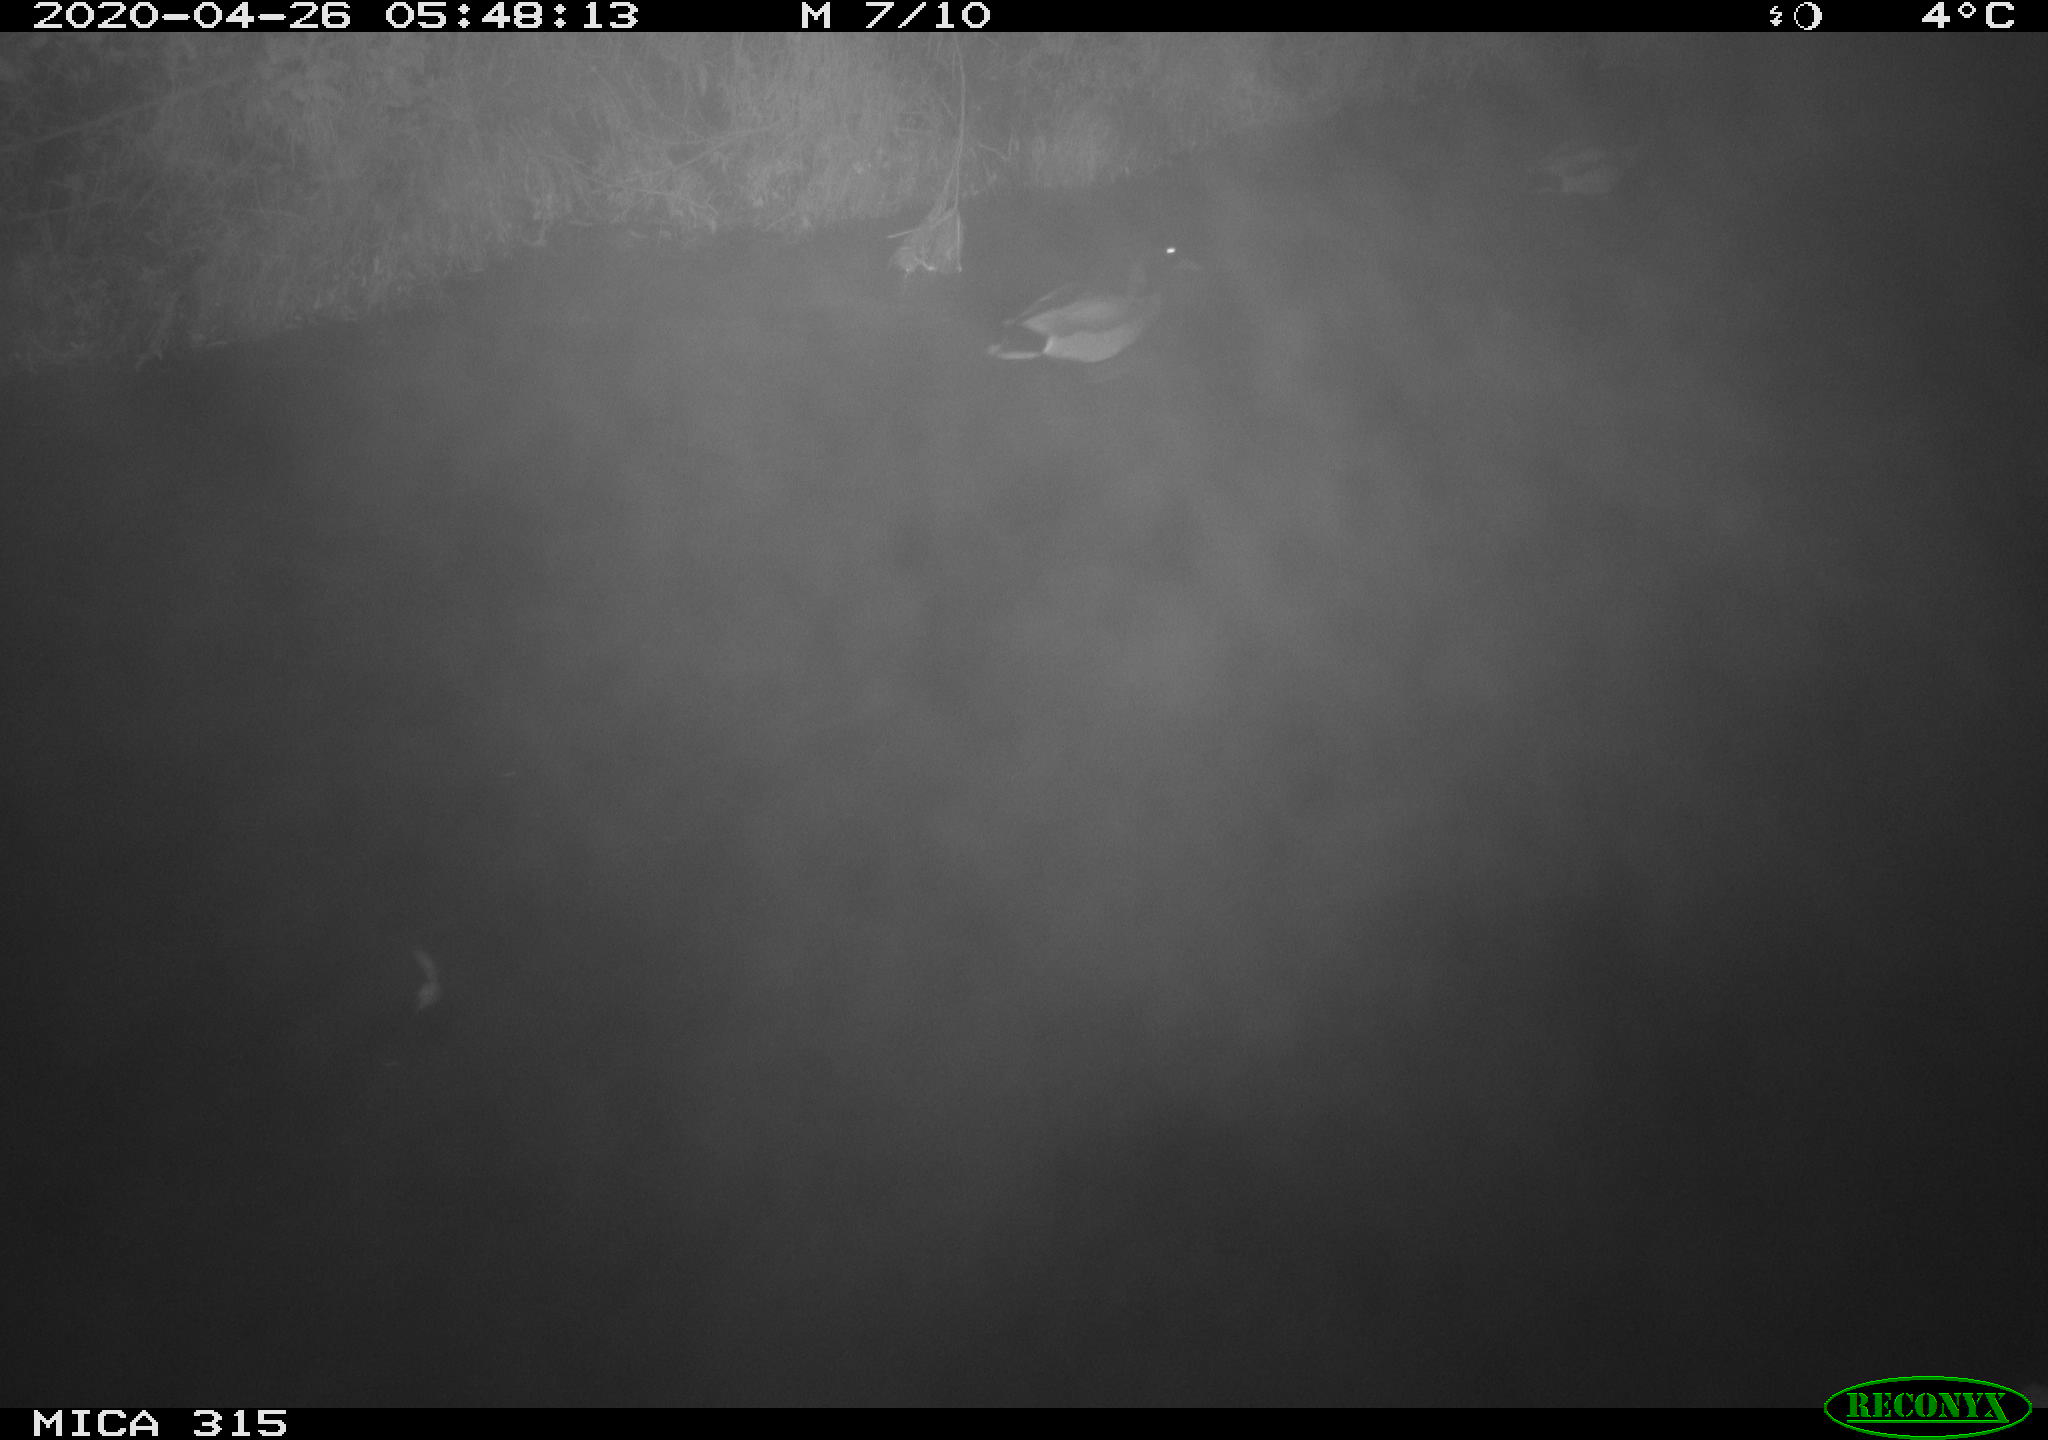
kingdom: Animalia
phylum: Chordata
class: Aves
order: Anseriformes
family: Anatidae
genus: Anas
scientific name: Anas platyrhynchos
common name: Mallard
